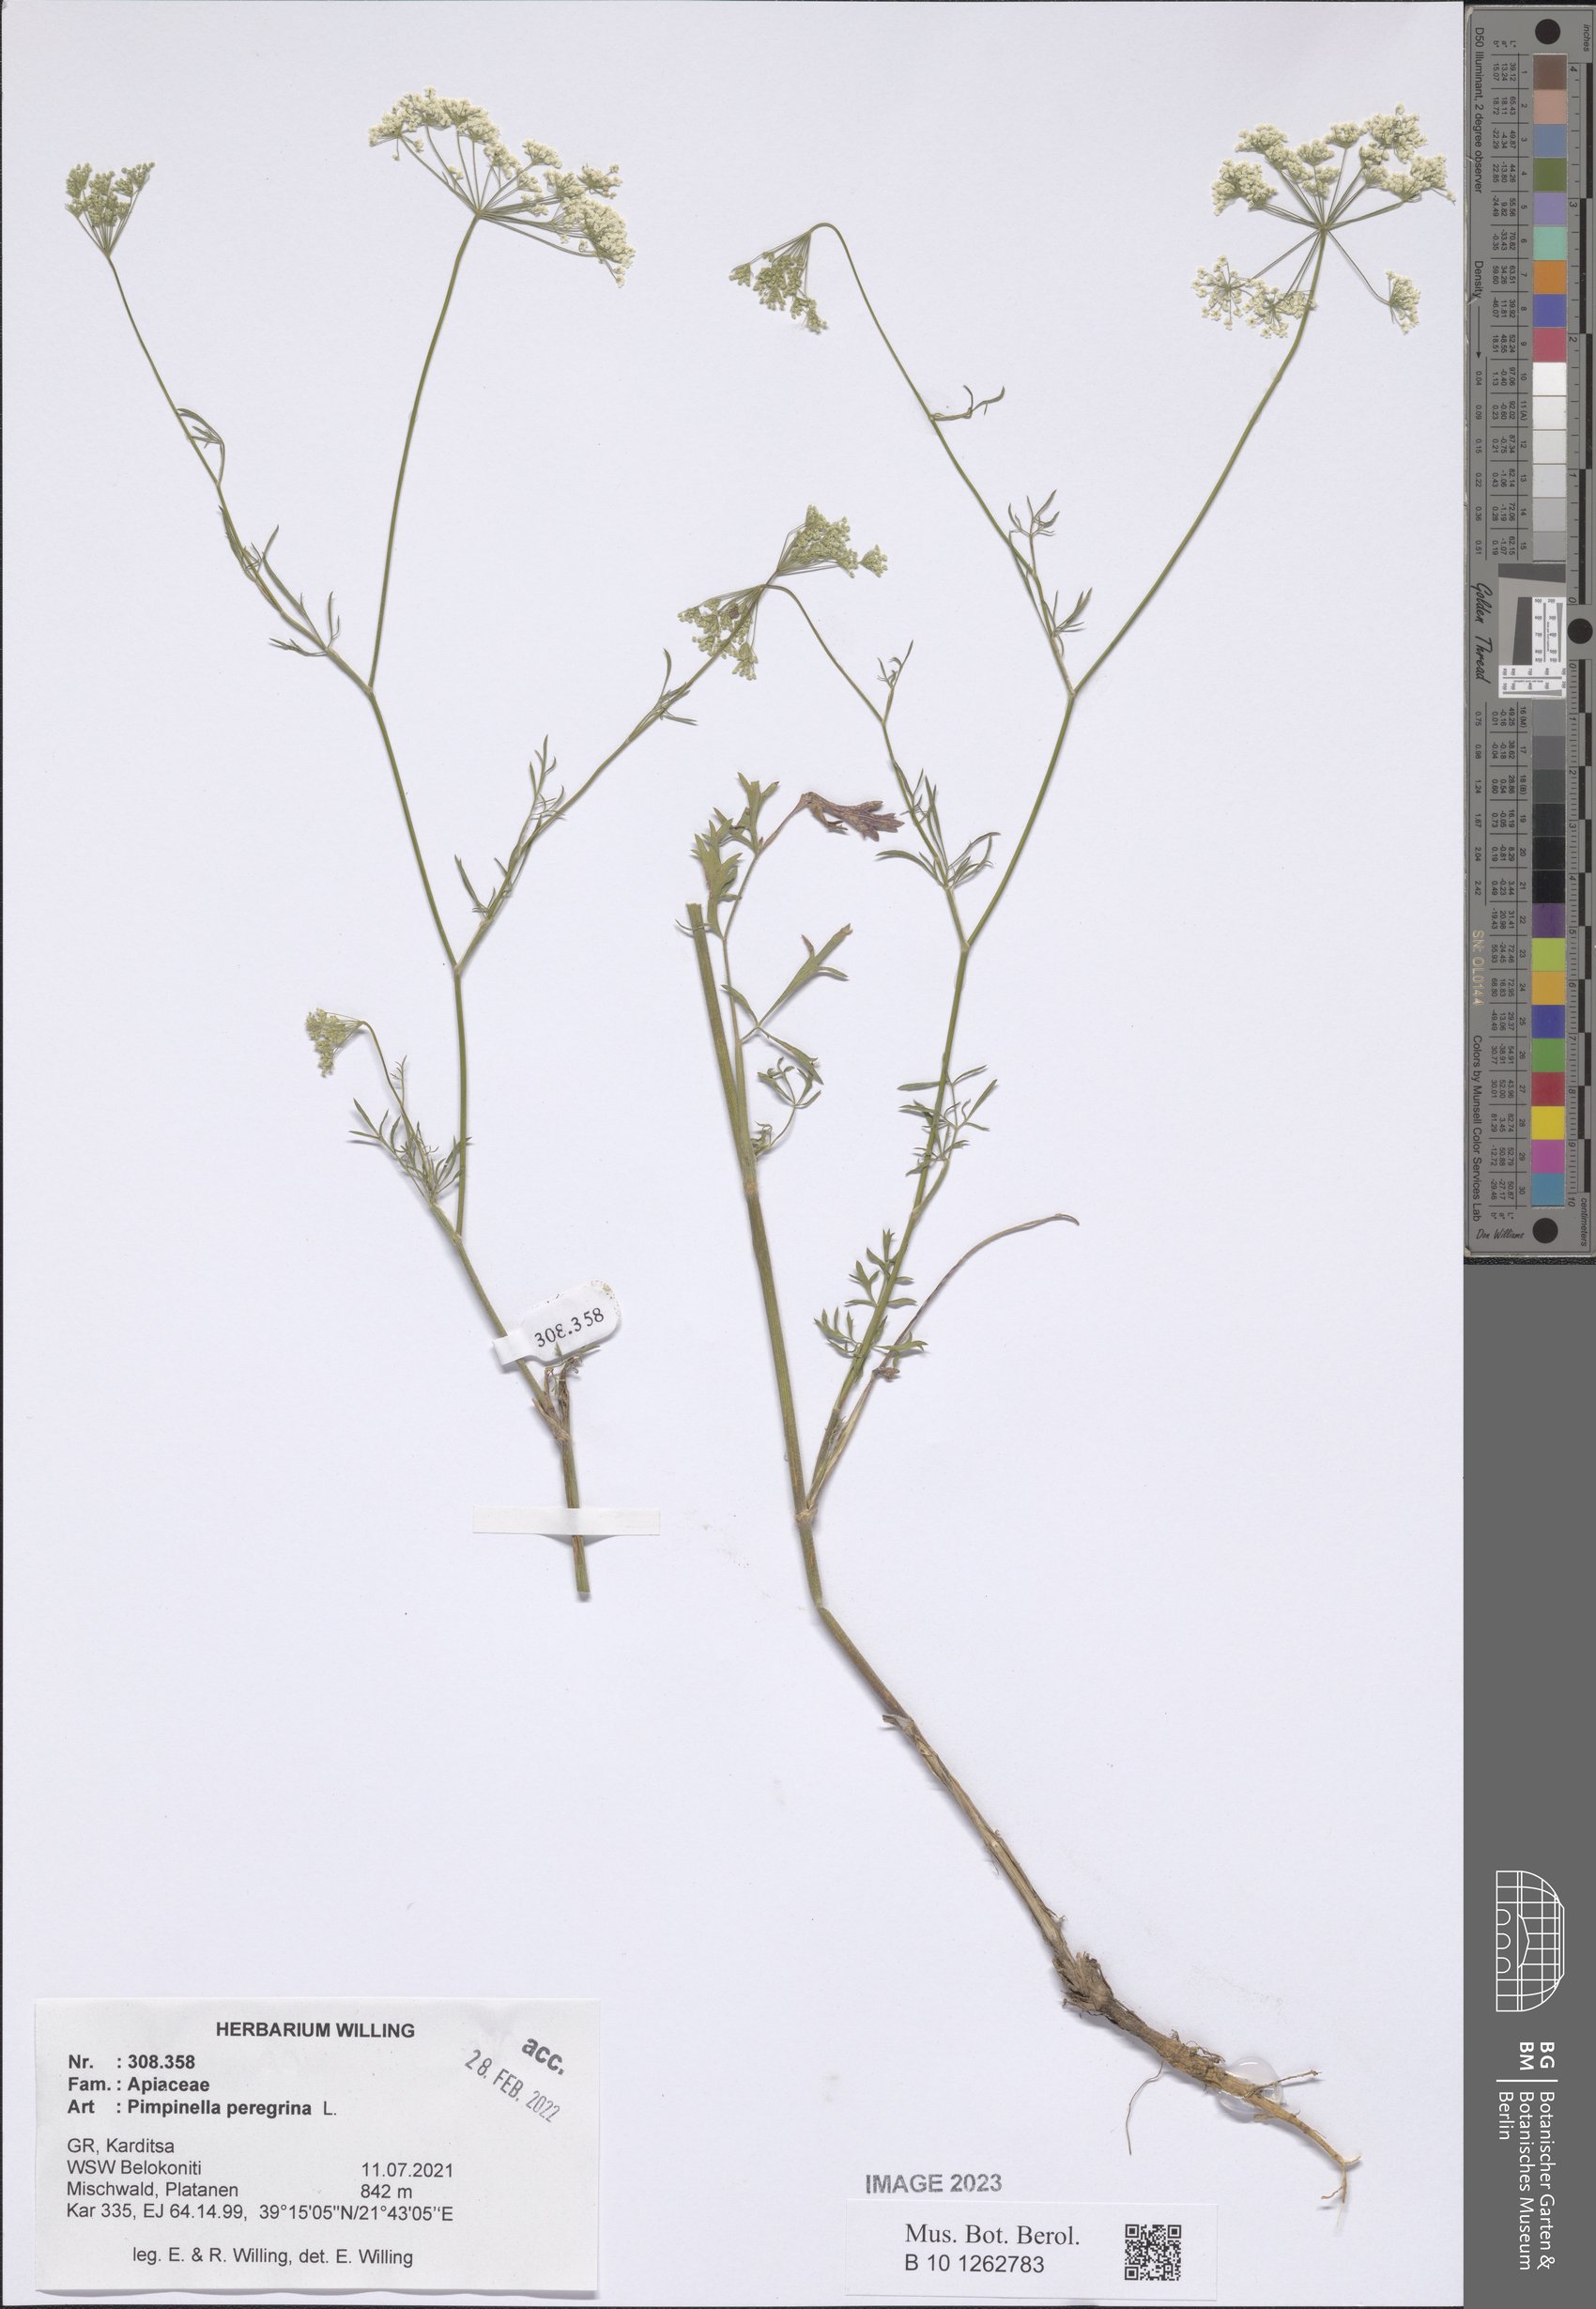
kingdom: Plantae
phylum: Tracheophyta
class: Magnoliopsida
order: Apiales
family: Apiaceae
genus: Pimpinella
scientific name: Pimpinella peregrina
